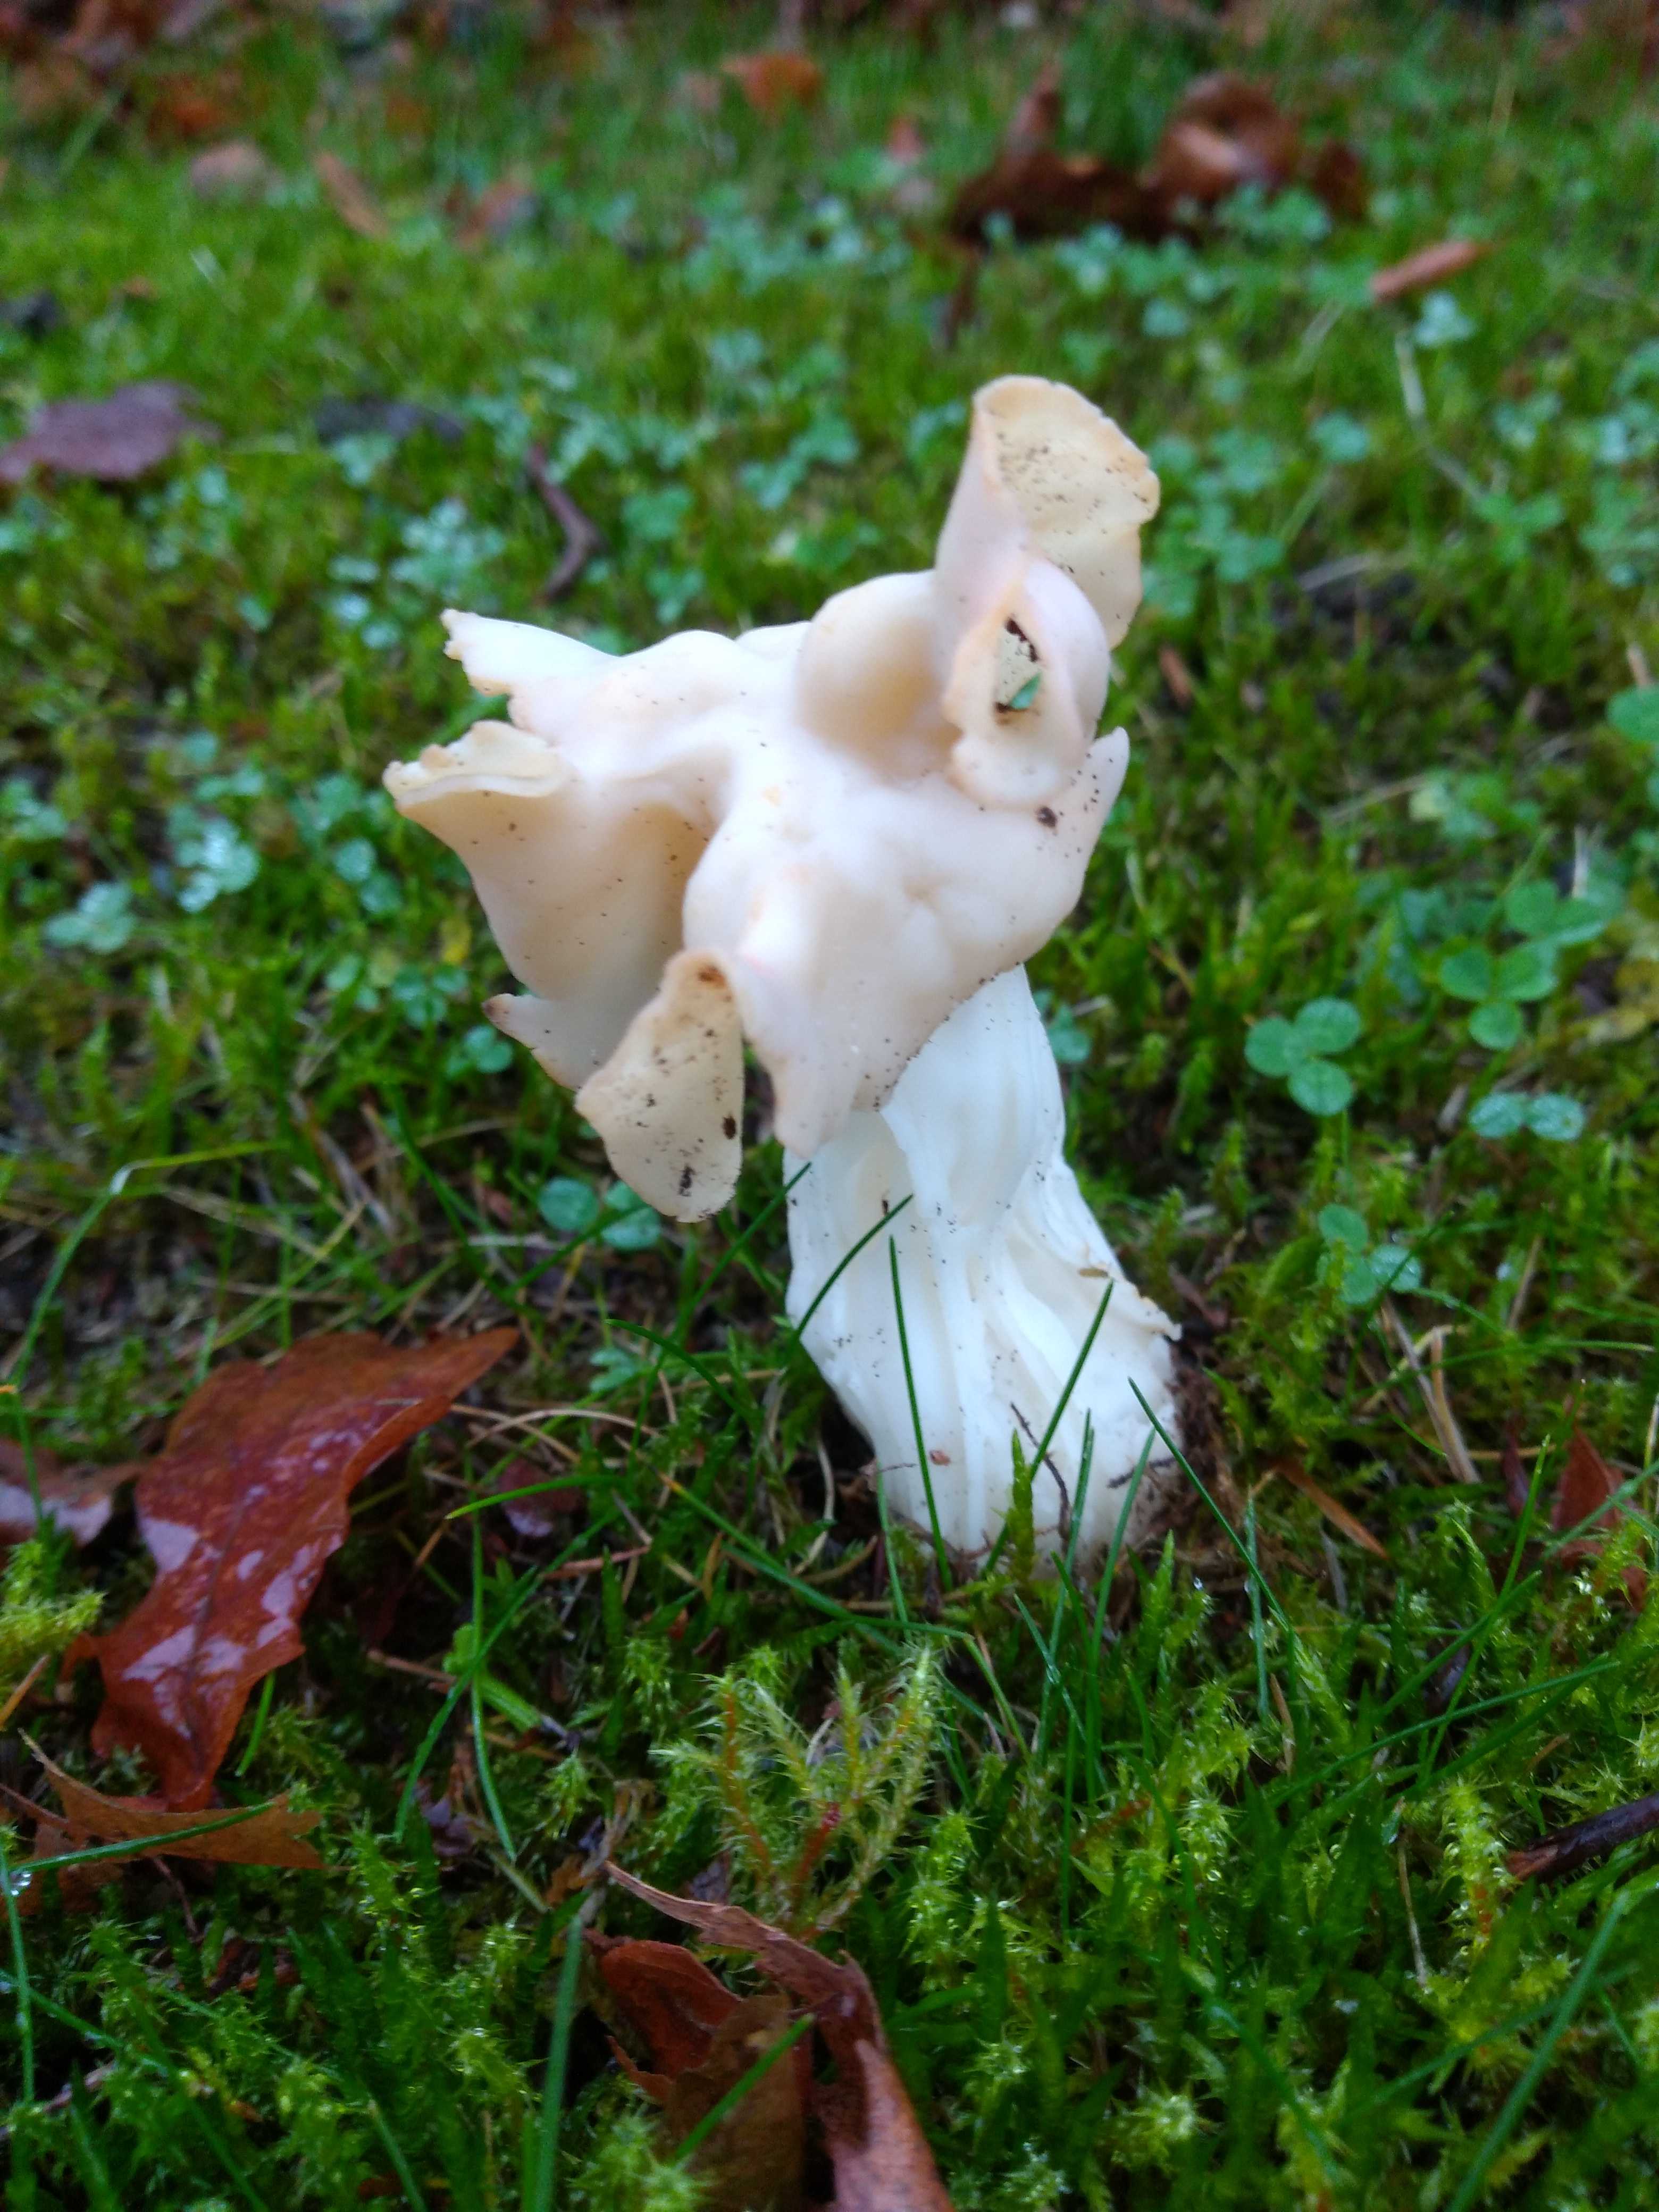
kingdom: Fungi
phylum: Ascomycota
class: Pezizomycetes
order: Pezizales
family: Helvellaceae
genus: Helvella
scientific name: Helvella crispa
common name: kruset foldhat
